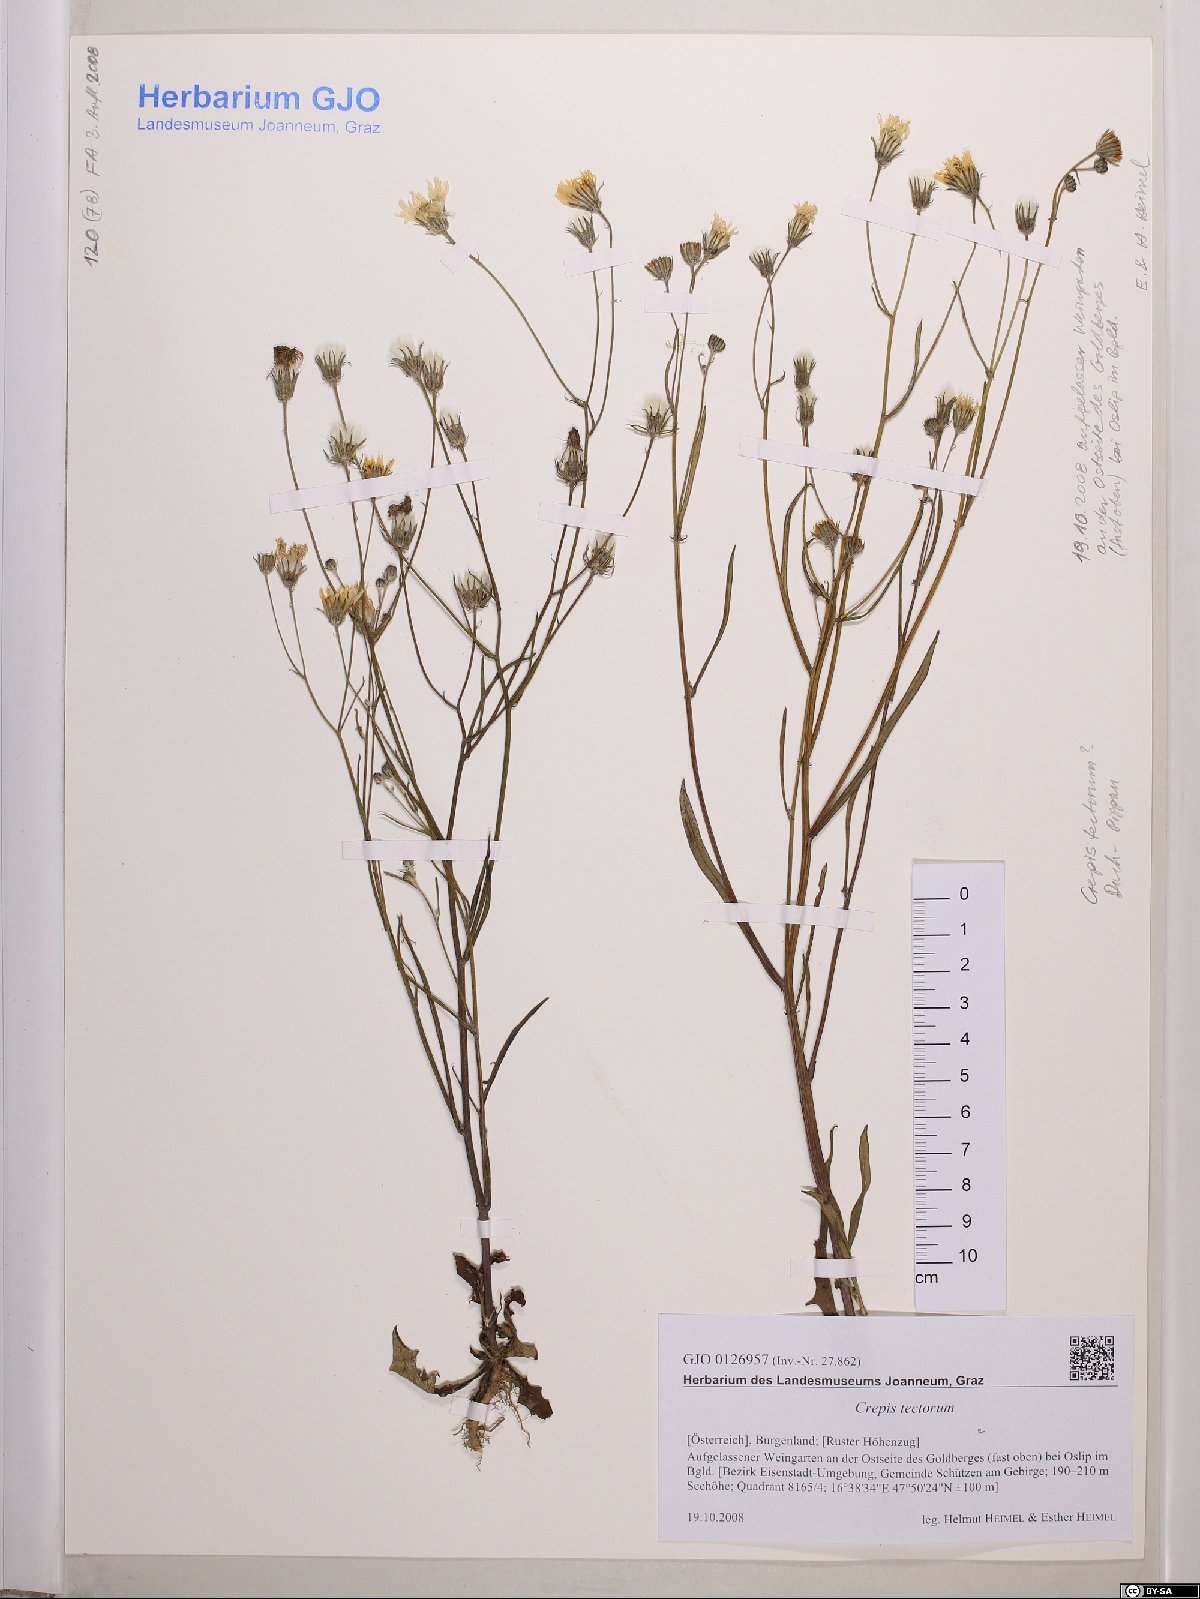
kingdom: Plantae
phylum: Tracheophyta
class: Magnoliopsida
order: Asterales
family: Asteraceae
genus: Crepis
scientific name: Crepis tectorum
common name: Narrow-leaved hawk's-beard
